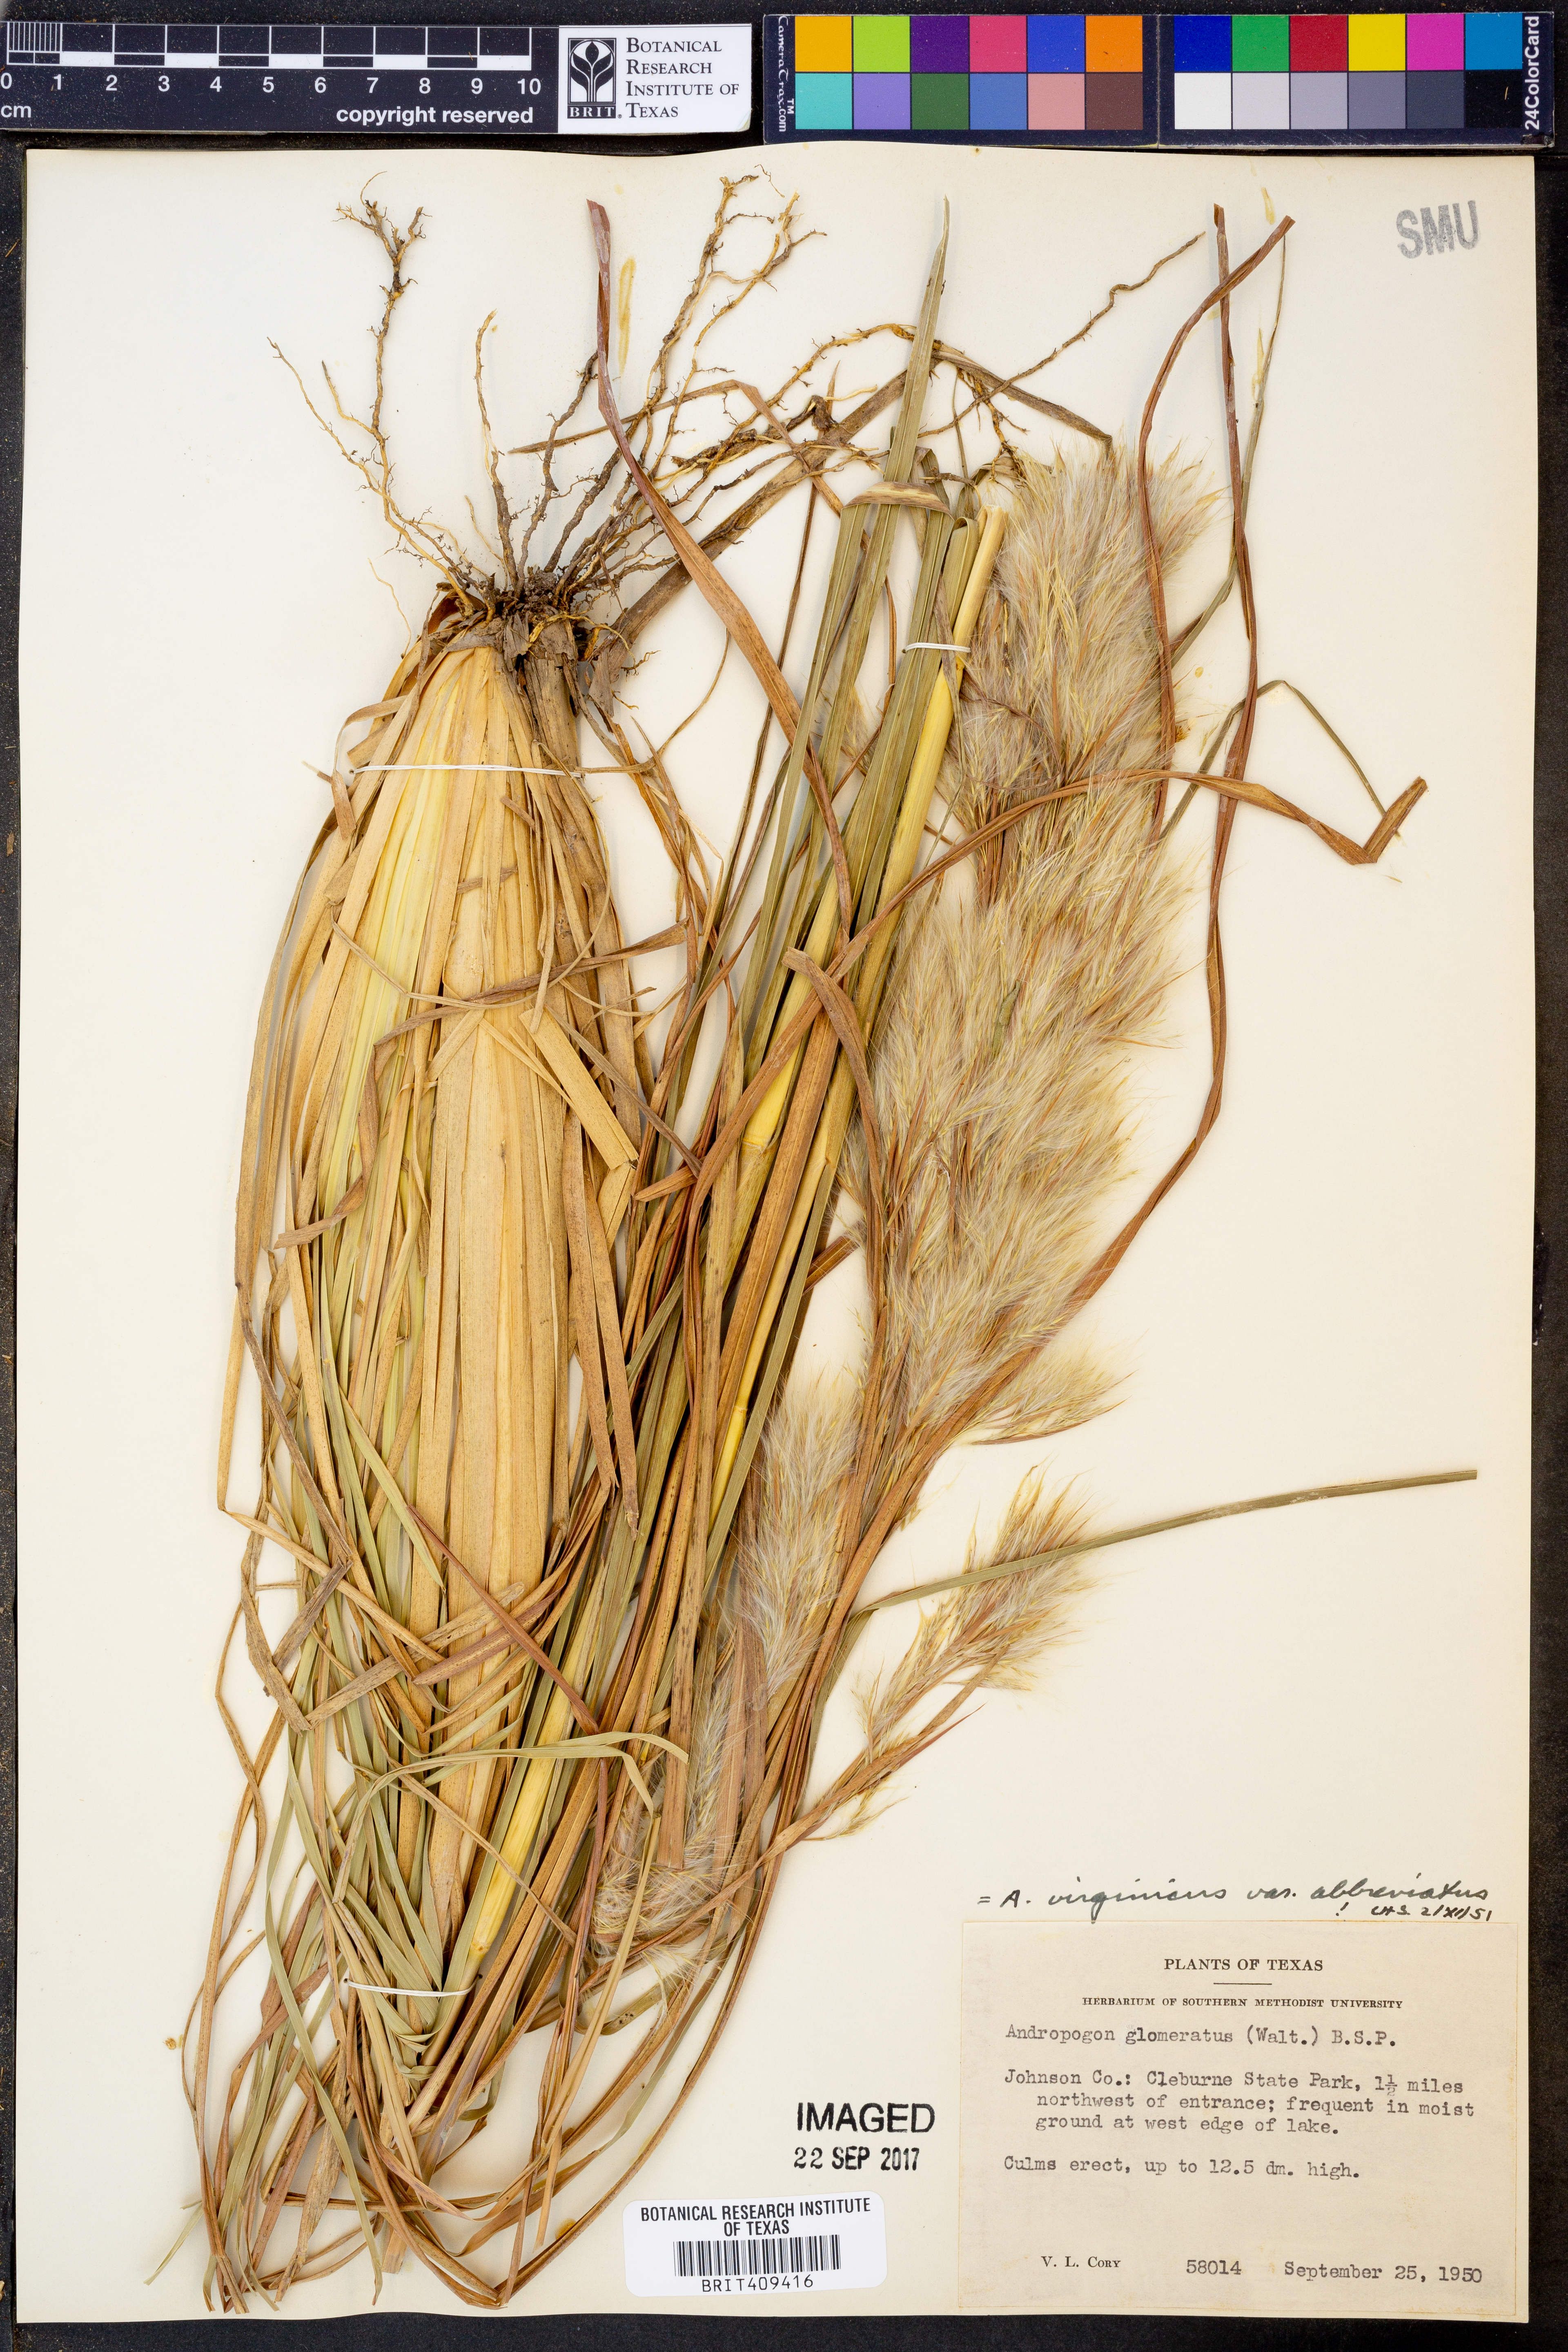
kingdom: Plantae
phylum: Tracheophyta
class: Liliopsida
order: Poales
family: Poaceae
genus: Andropogon
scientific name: Andropogon glomeratus
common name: Bushy beard grass
